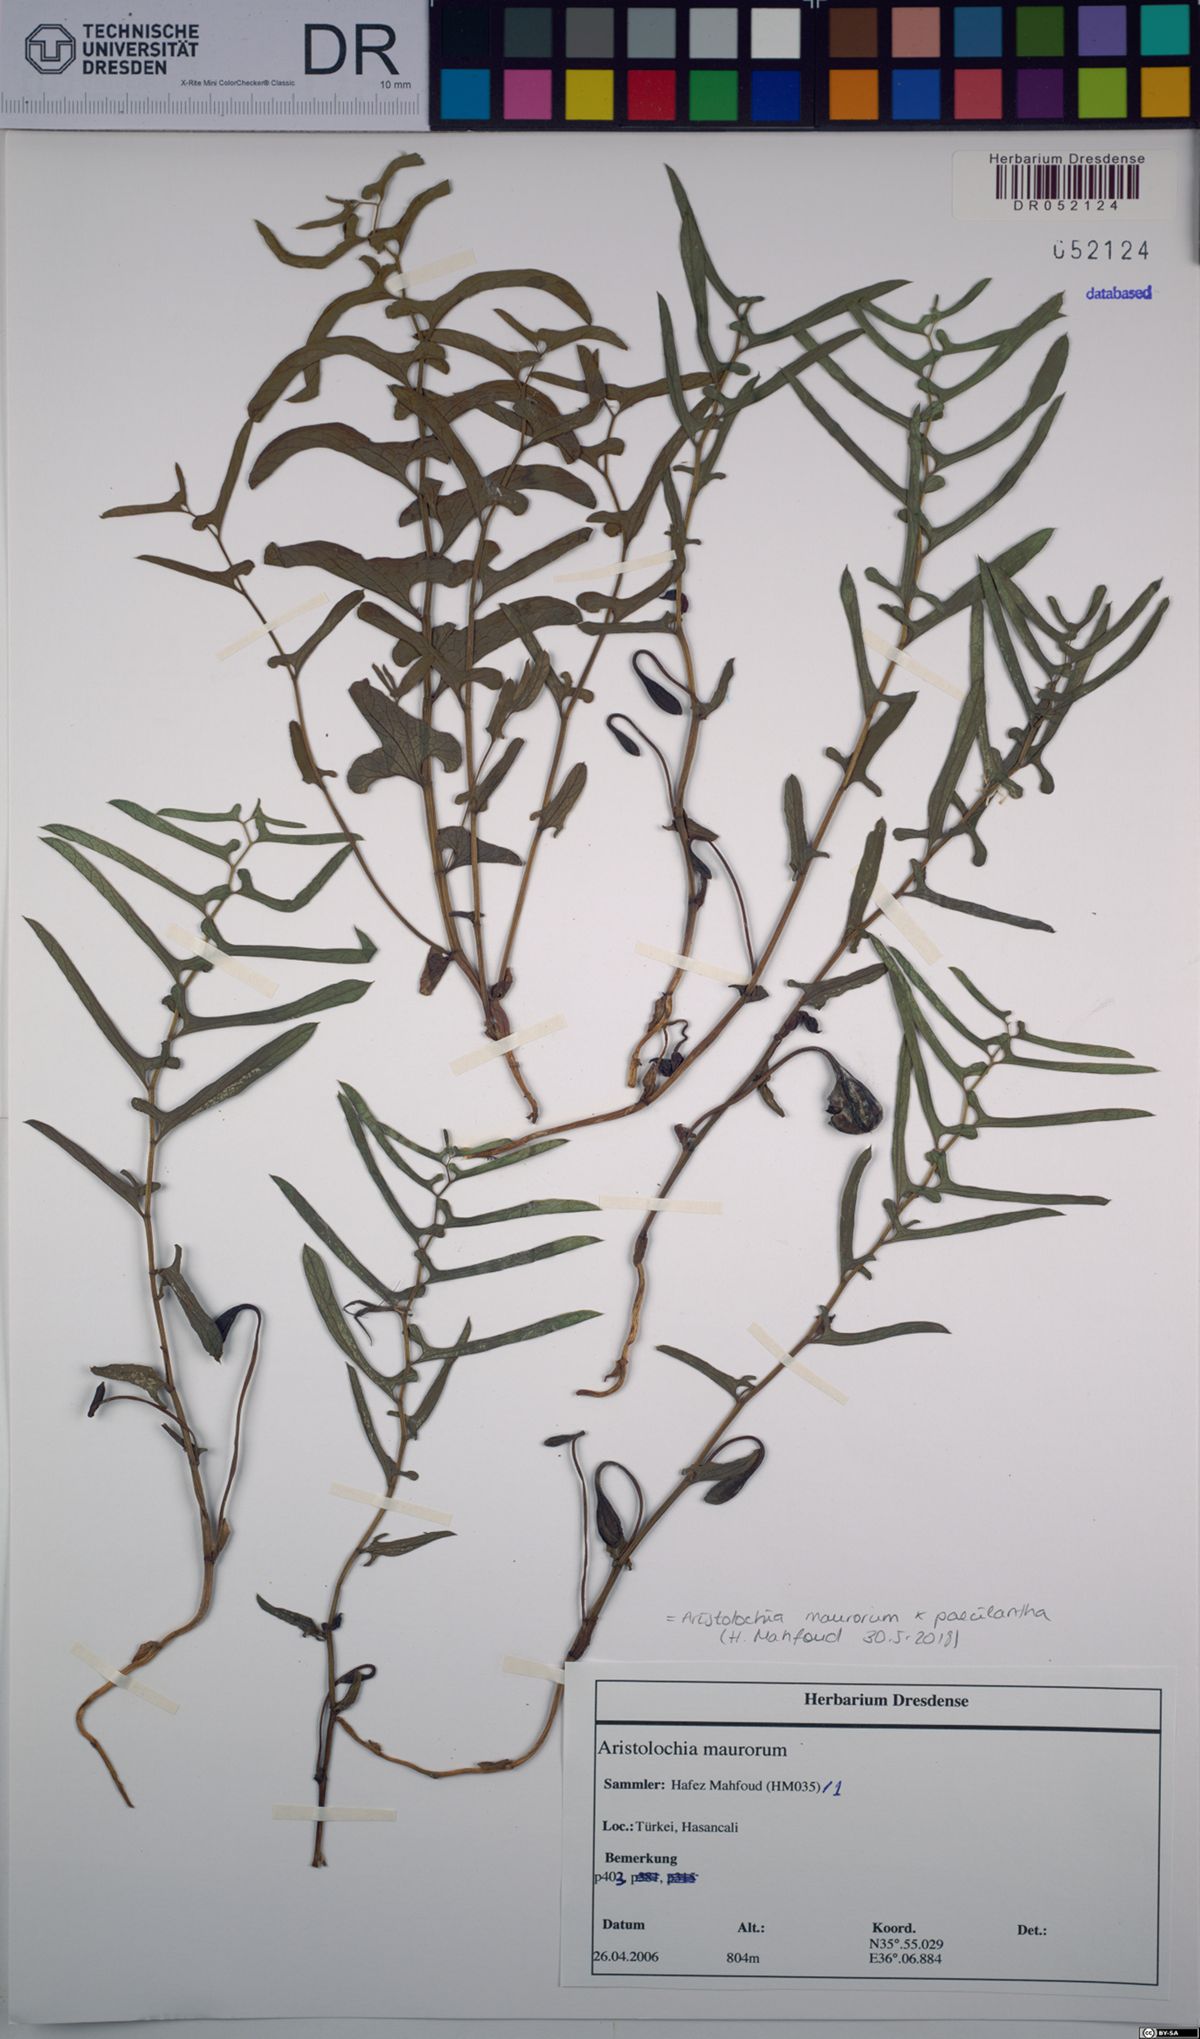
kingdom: Plantae
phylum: Tracheophyta
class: Magnoliopsida
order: Piperales
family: Aristolochiaceae
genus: Aristolochia
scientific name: Aristolochia maurorum
